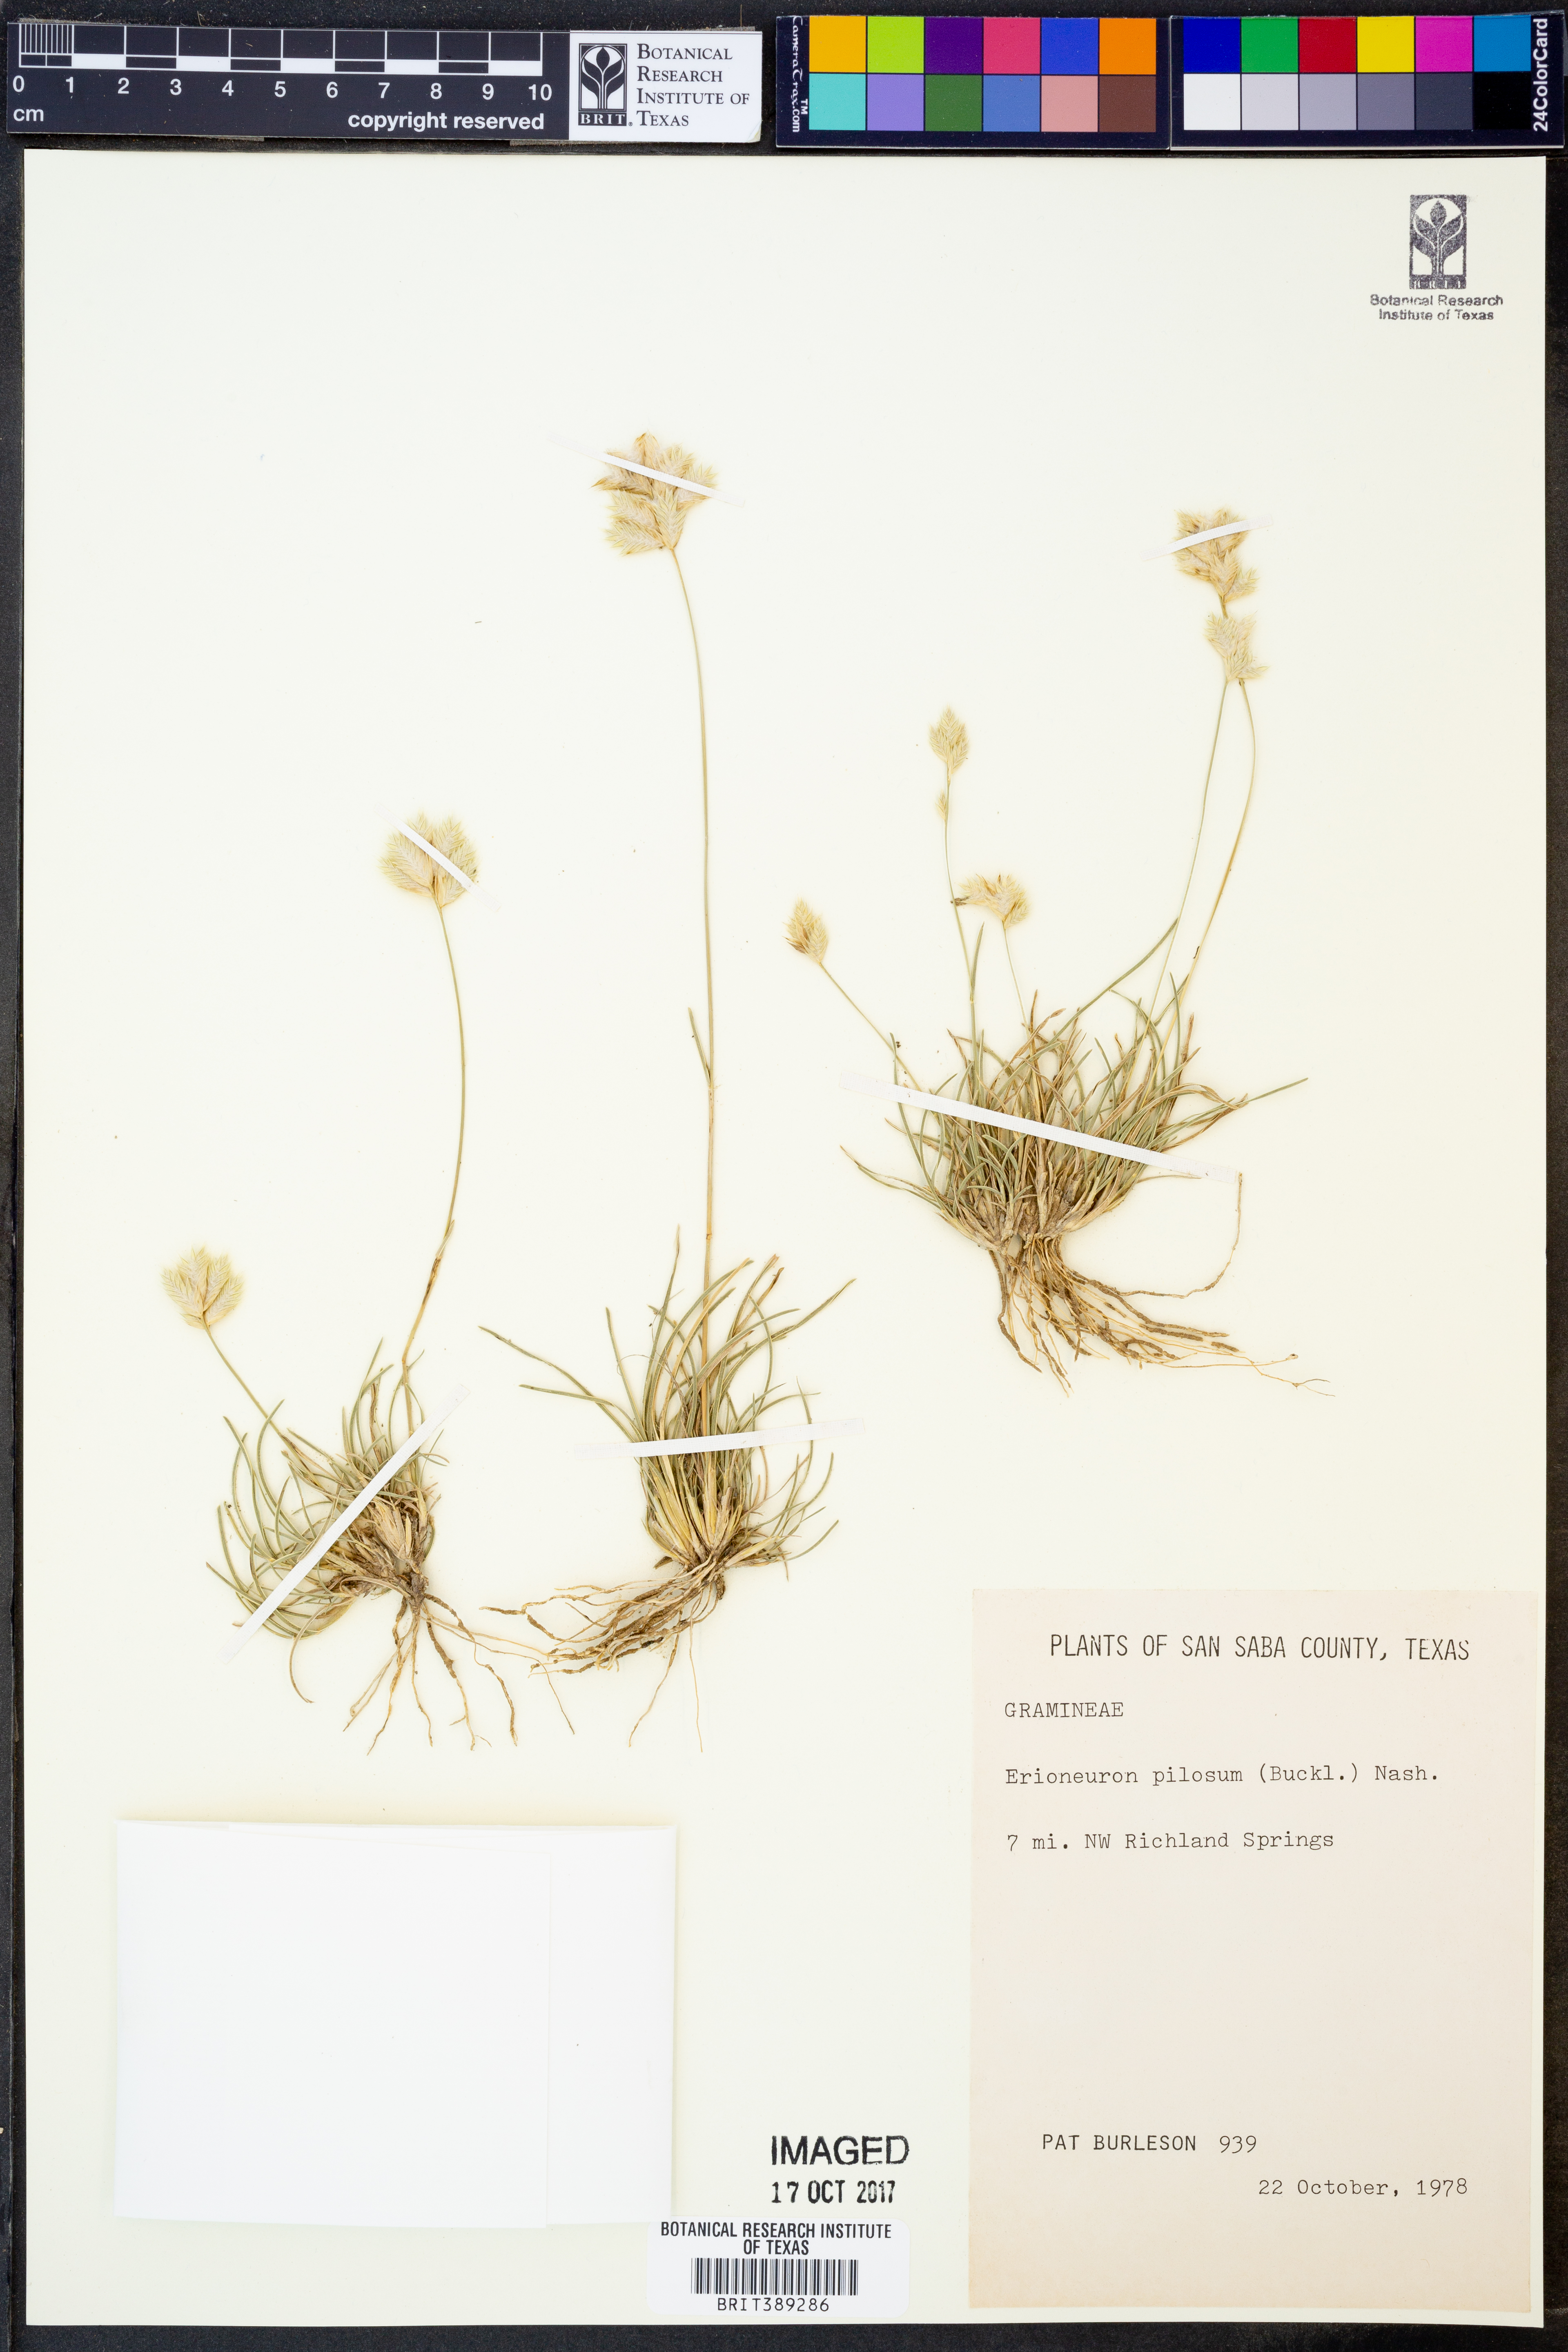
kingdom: Plantae
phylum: Tracheophyta
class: Liliopsida
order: Poales
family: Poaceae
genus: Erioneuron
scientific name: Erioneuron pilosum
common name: Hairy woolly grass
